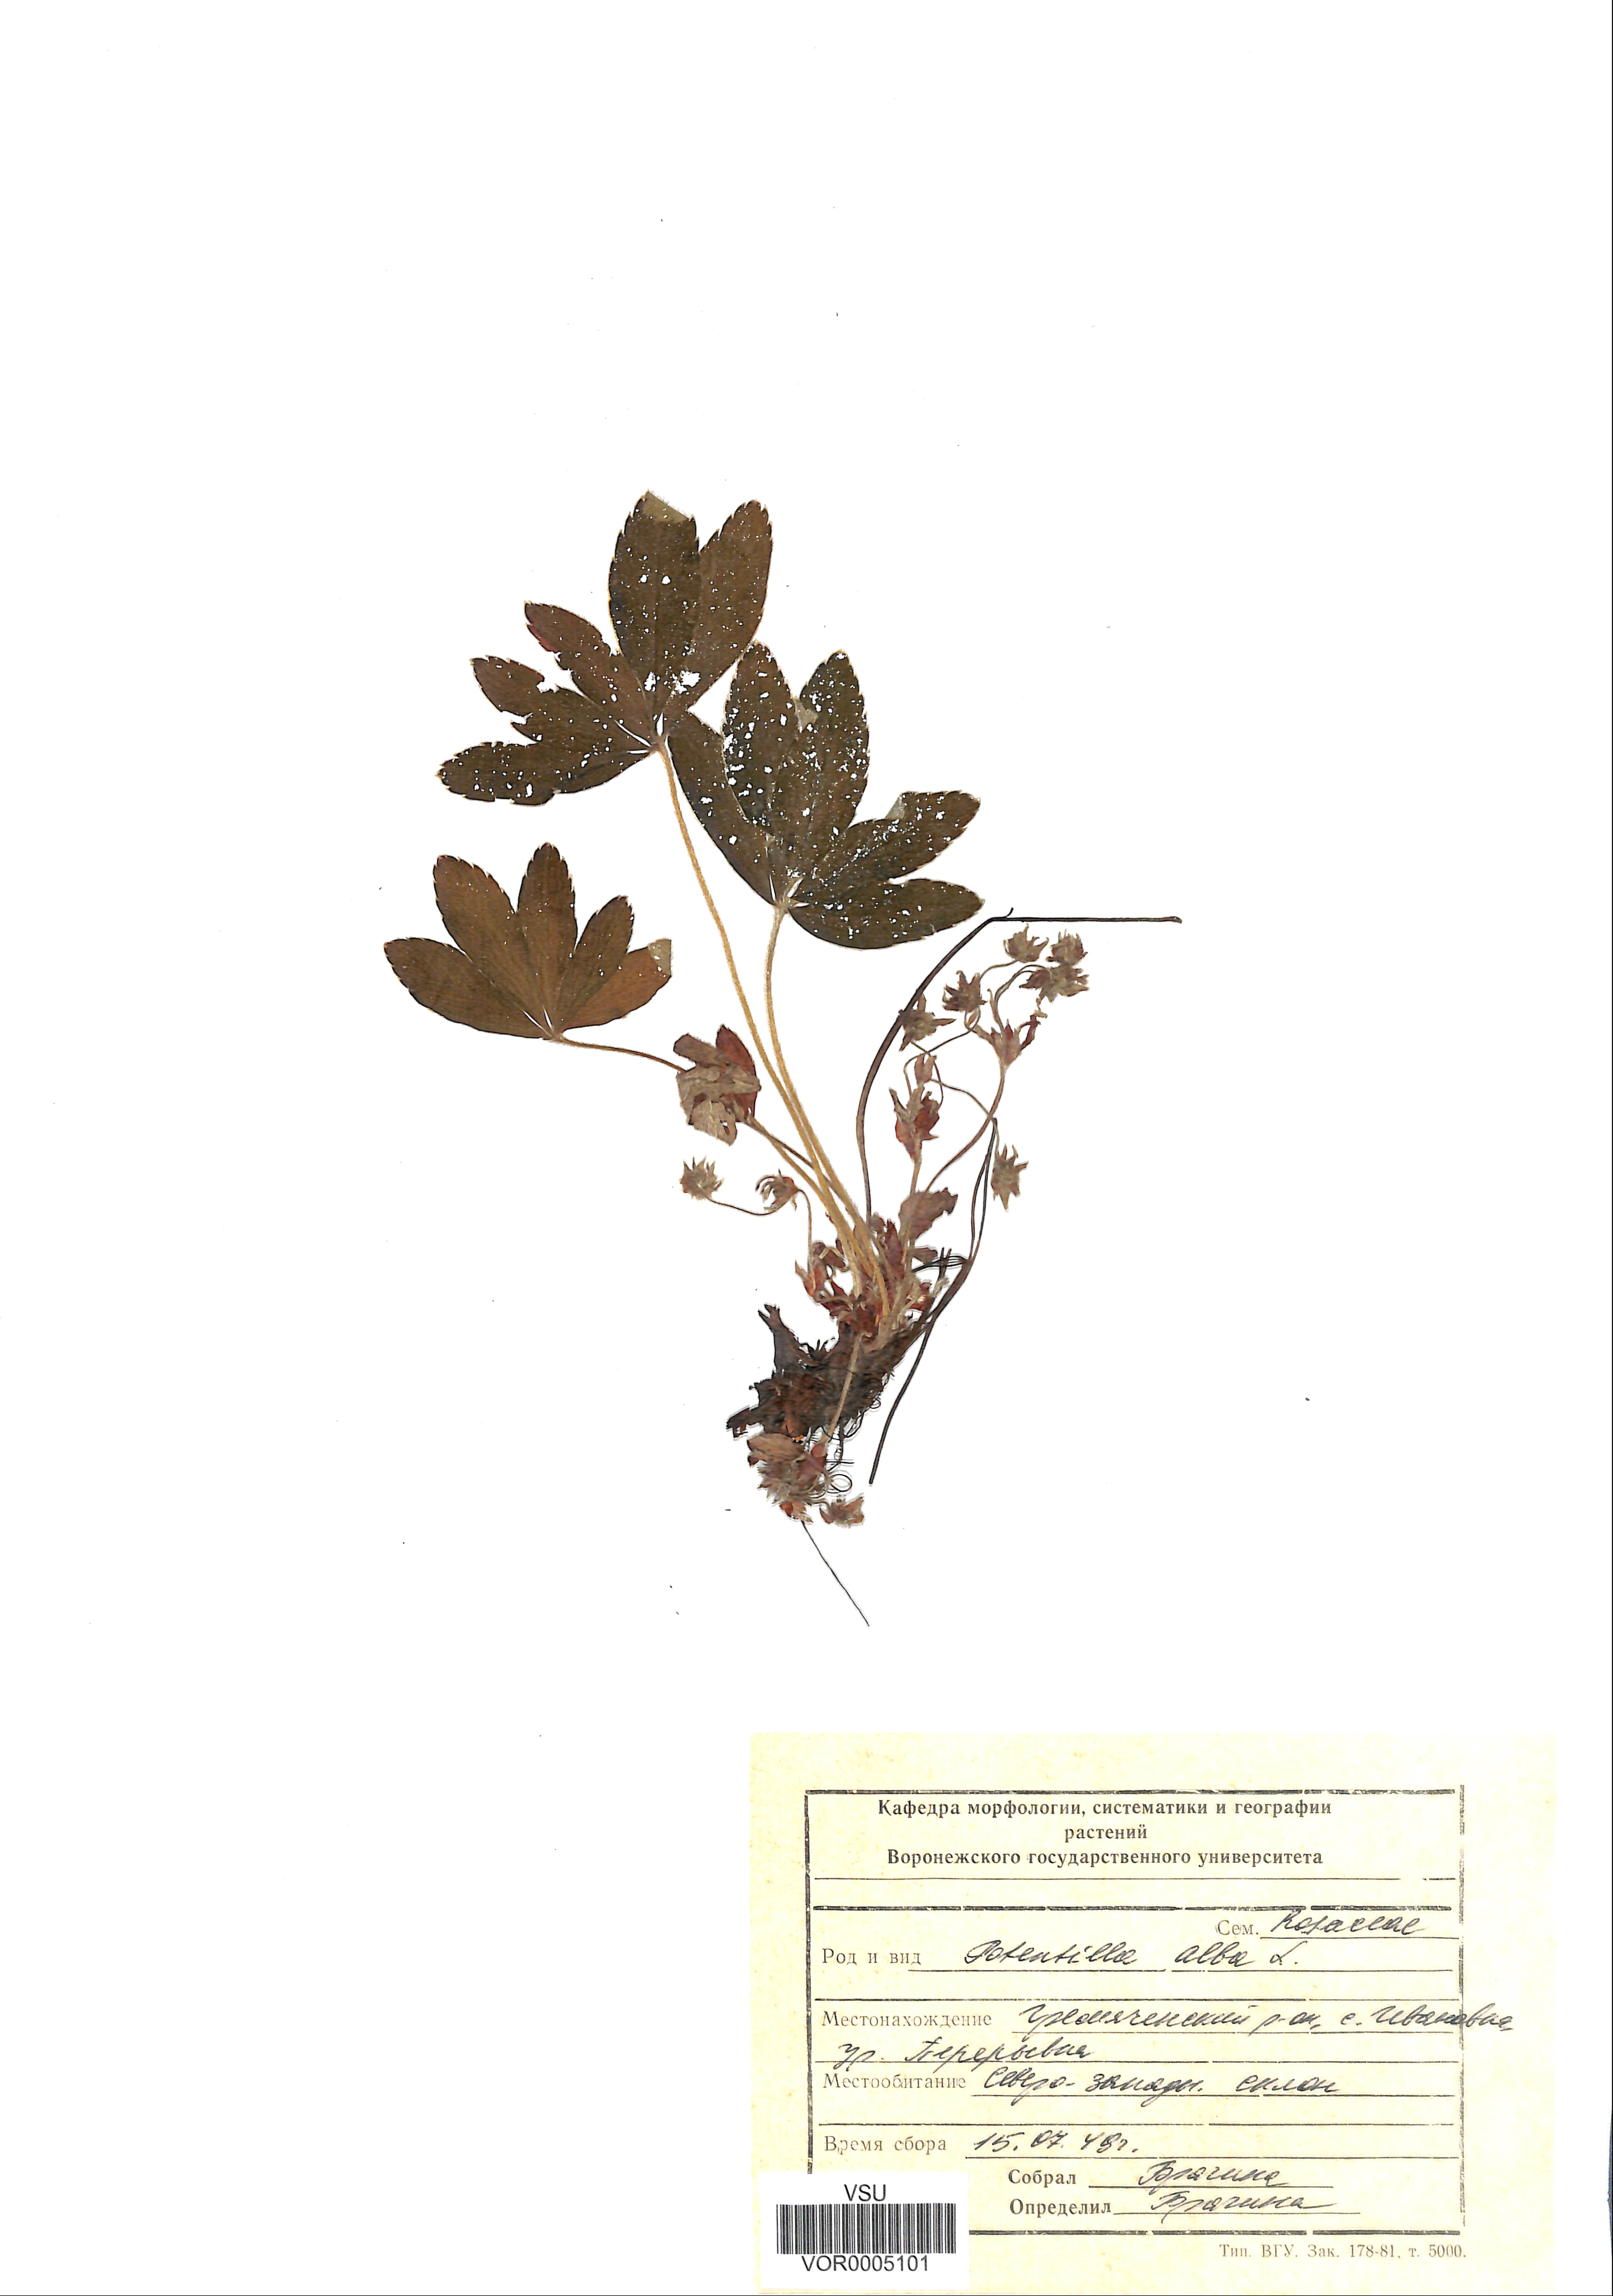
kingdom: Plantae
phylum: Tracheophyta
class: Magnoliopsida
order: Rosales
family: Rosaceae
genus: Potentilla
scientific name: Potentilla alba
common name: White cinquefoil
